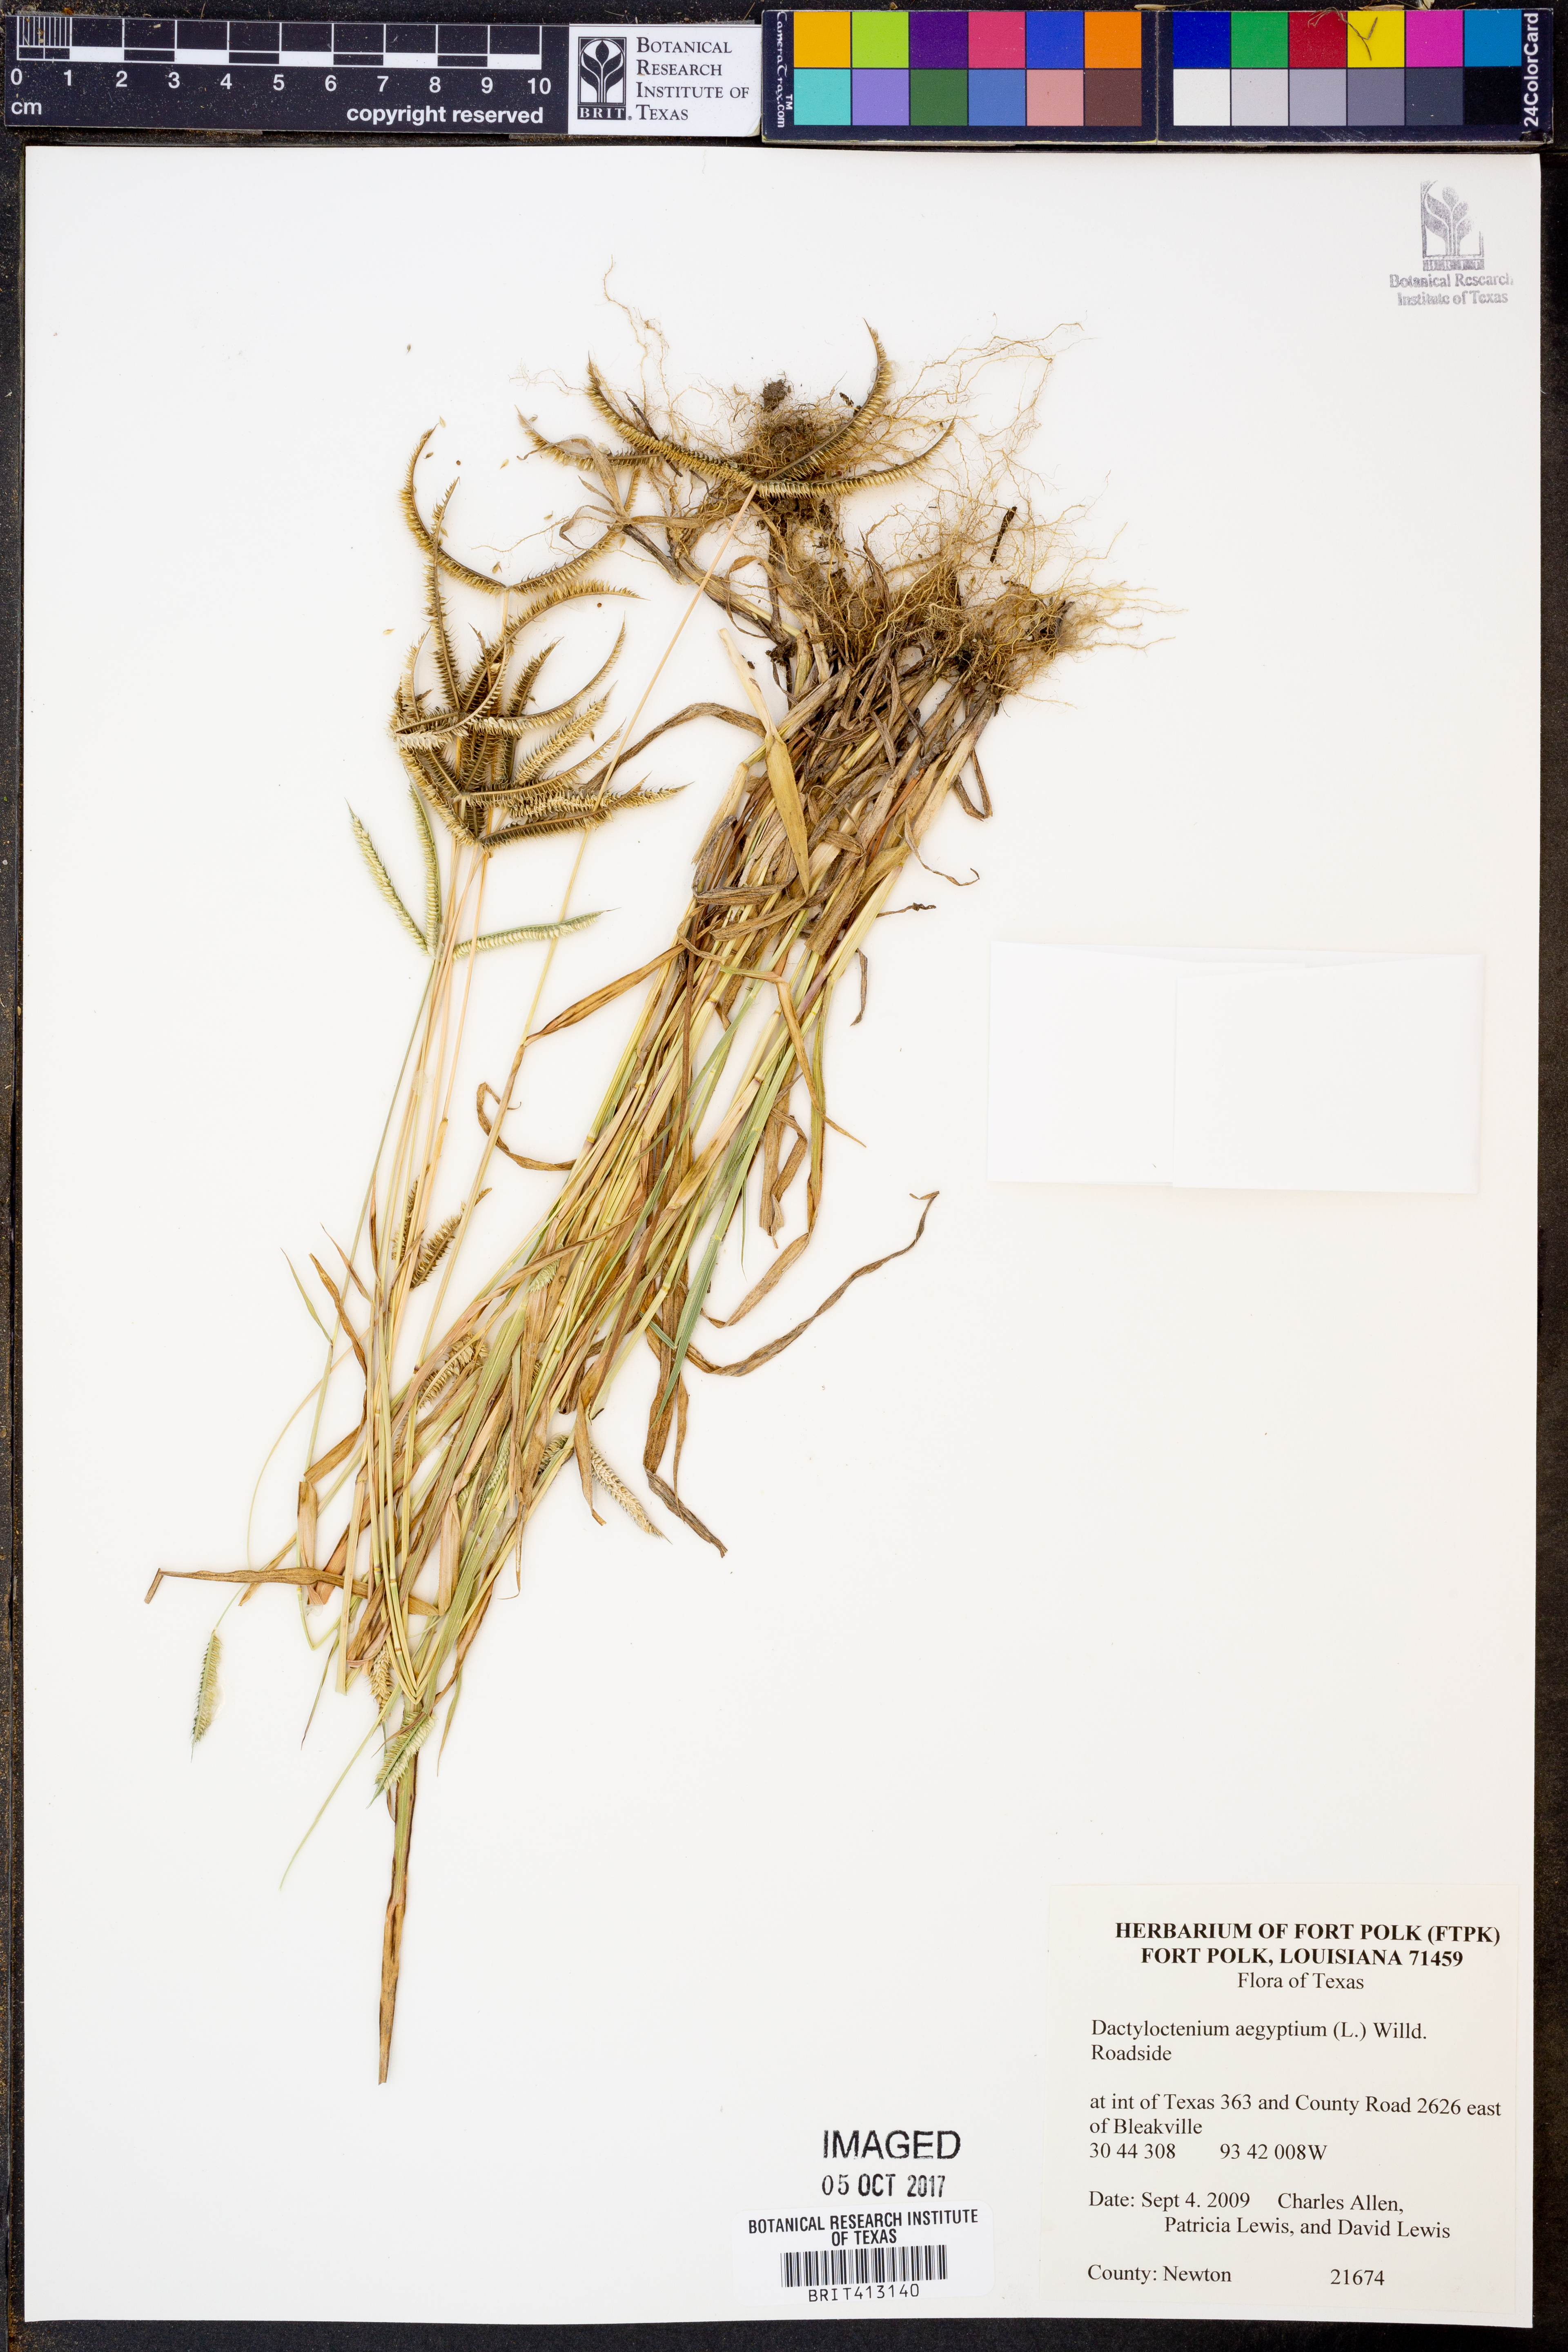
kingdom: Plantae
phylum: Tracheophyta
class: Liliopsida
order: Poales
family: Poaceae
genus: Dactyloctenium
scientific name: Dactyloctenium aegyptium
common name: Egyptian grass
